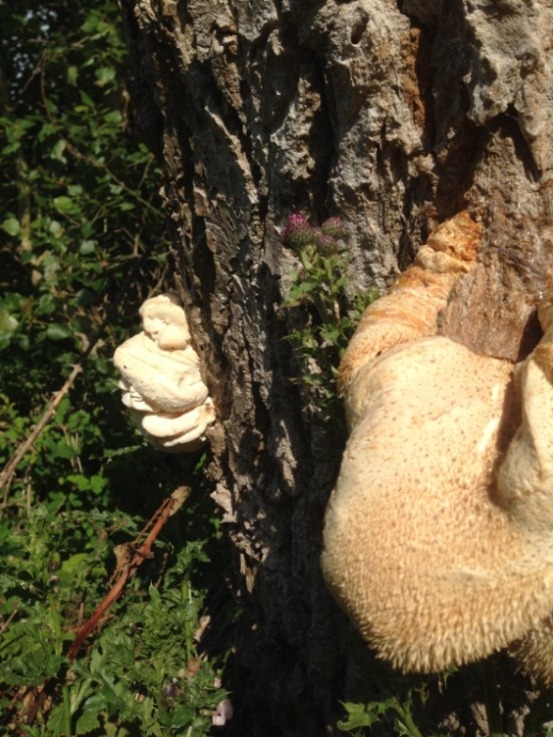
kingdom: Fungi
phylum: Basidiomycota
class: Agaricomycetes
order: Russulales
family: Hericiaceae
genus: Hericium
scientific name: Hericium cirrhatum
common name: børstepigsvamp
